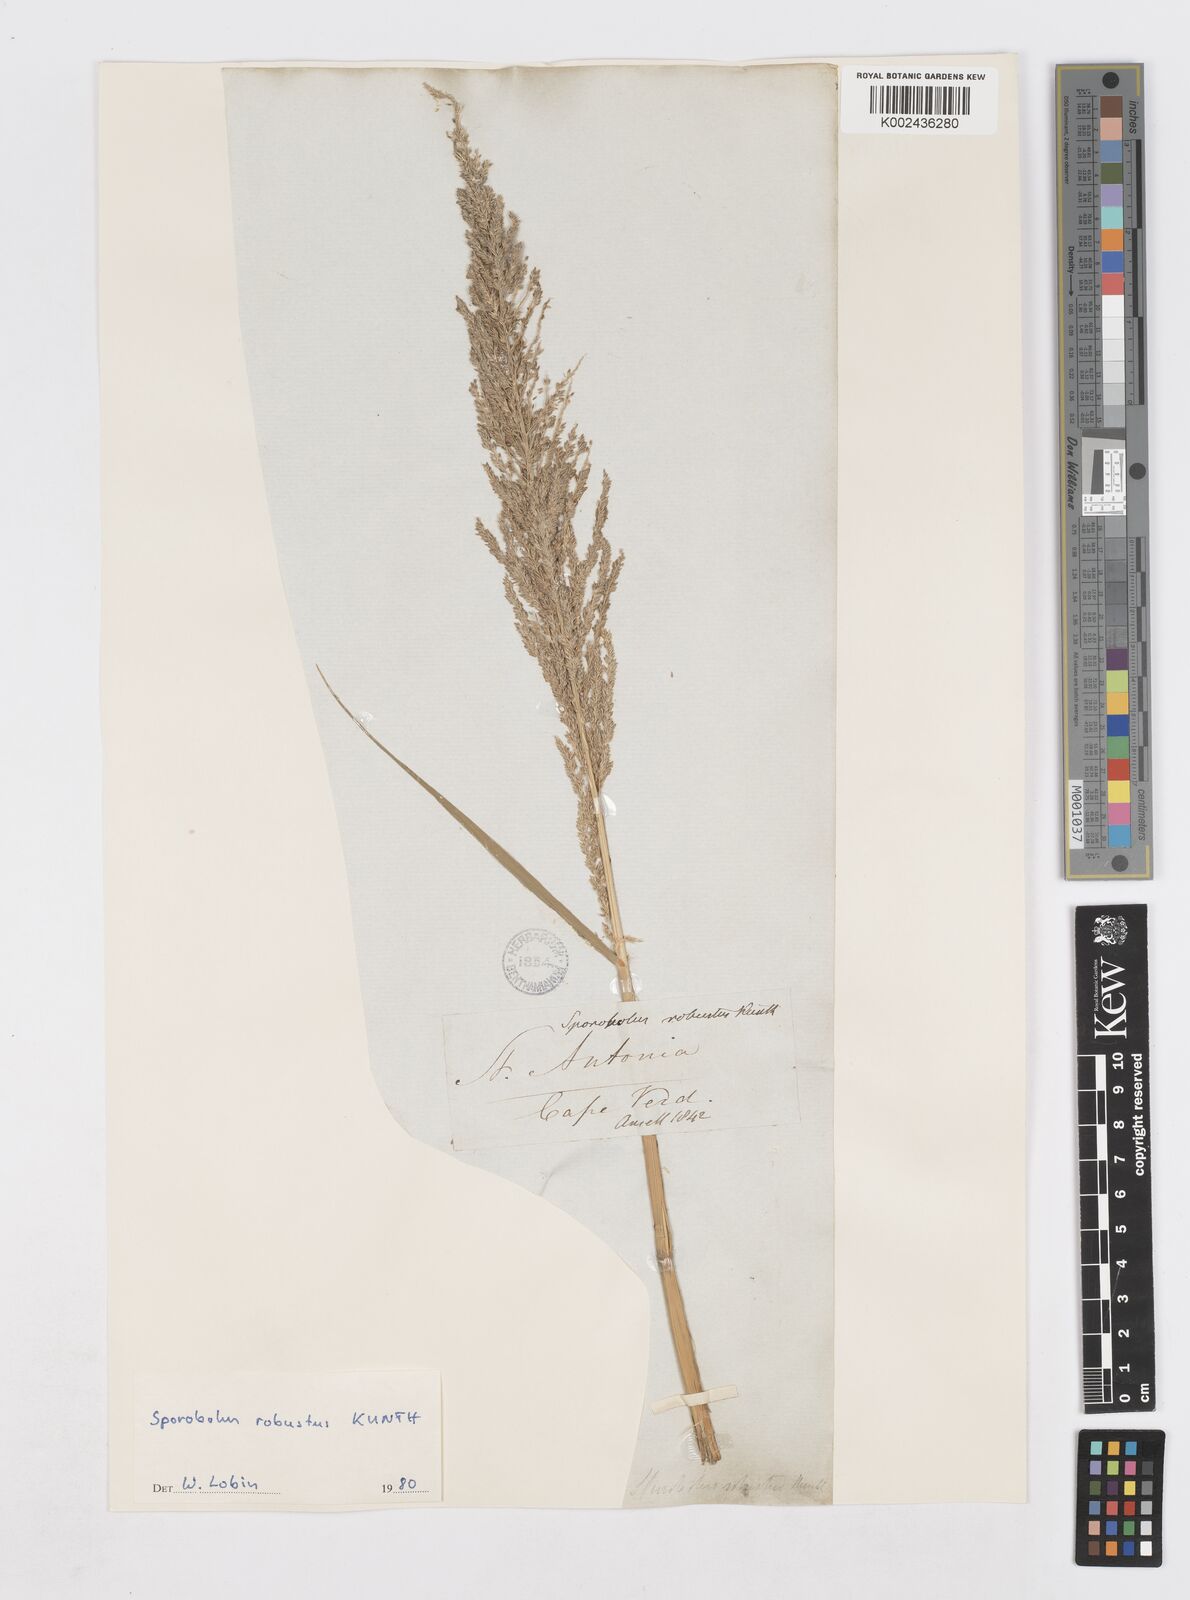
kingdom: Plantae
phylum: Tracheophyta
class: Liliopsida
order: Poales
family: Poaceae
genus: Sporobolus
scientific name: Sporobolus robustus
